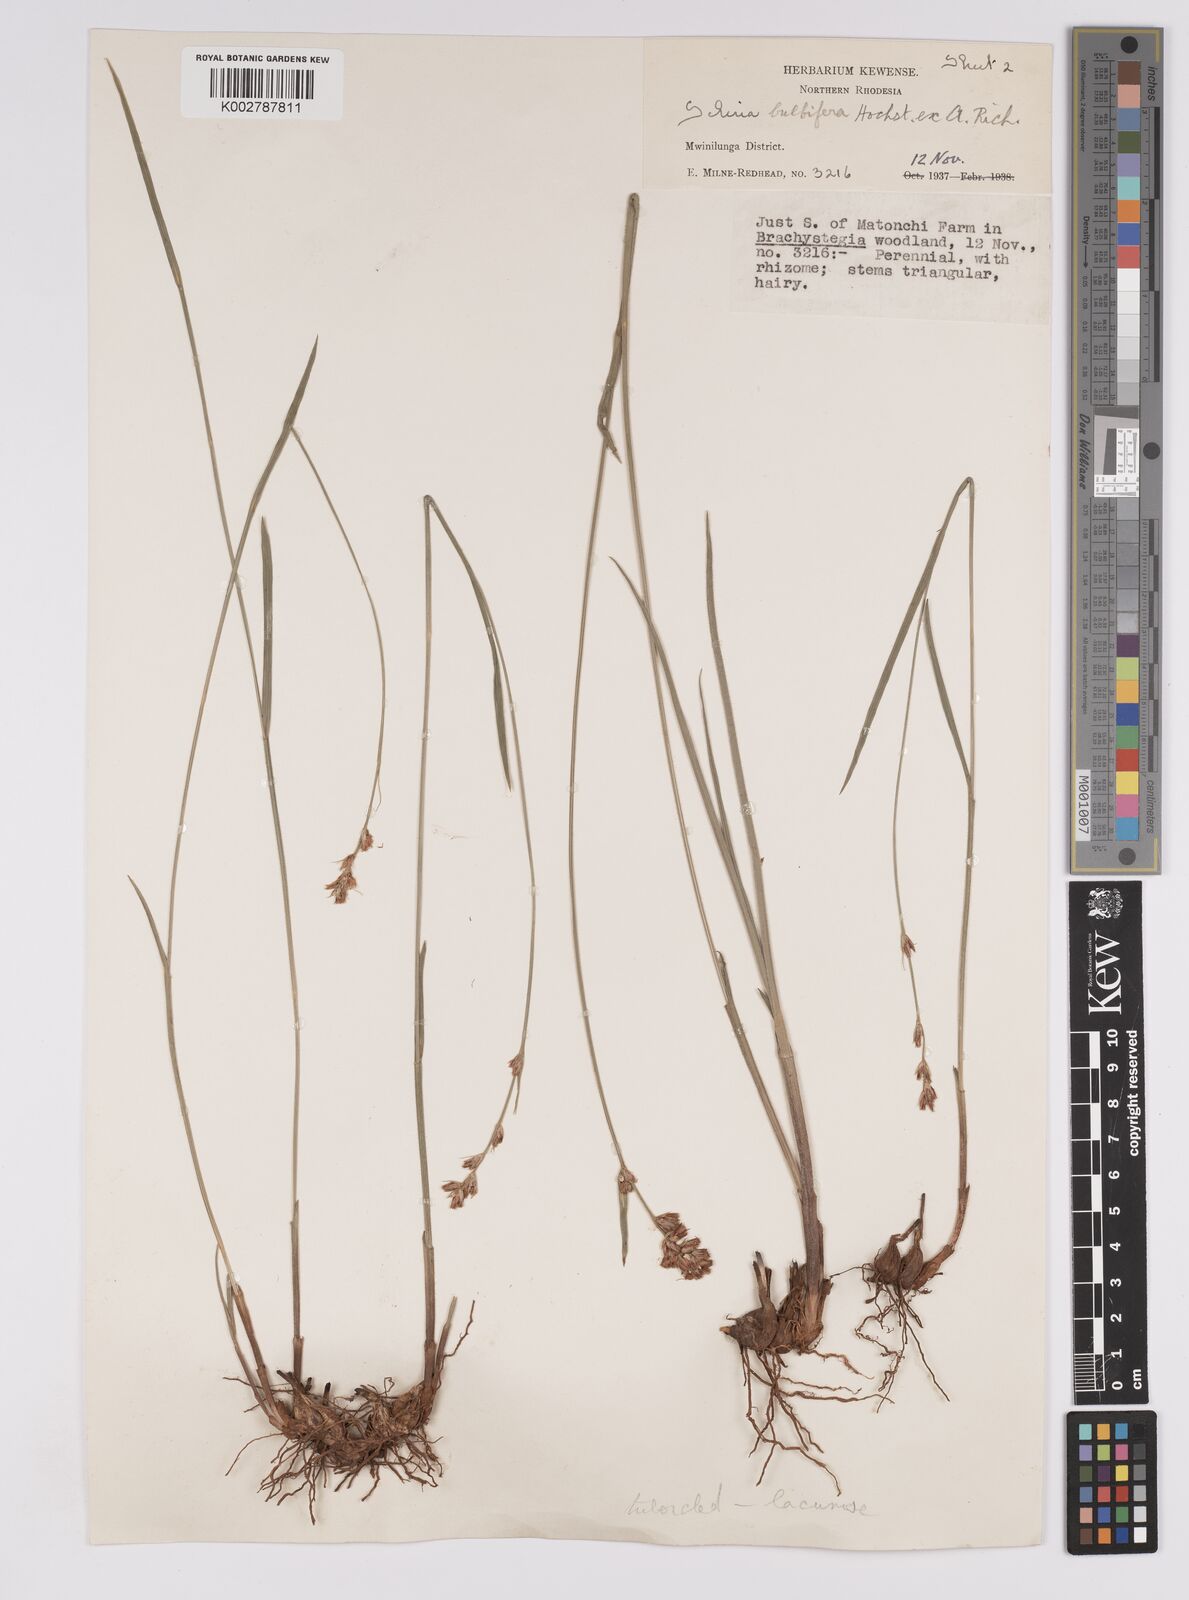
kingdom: Plantae
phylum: Tracheophyta
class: Liliopsida
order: Poales
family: Cyperaceae
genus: Scleria
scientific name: Scleria bulbifera
